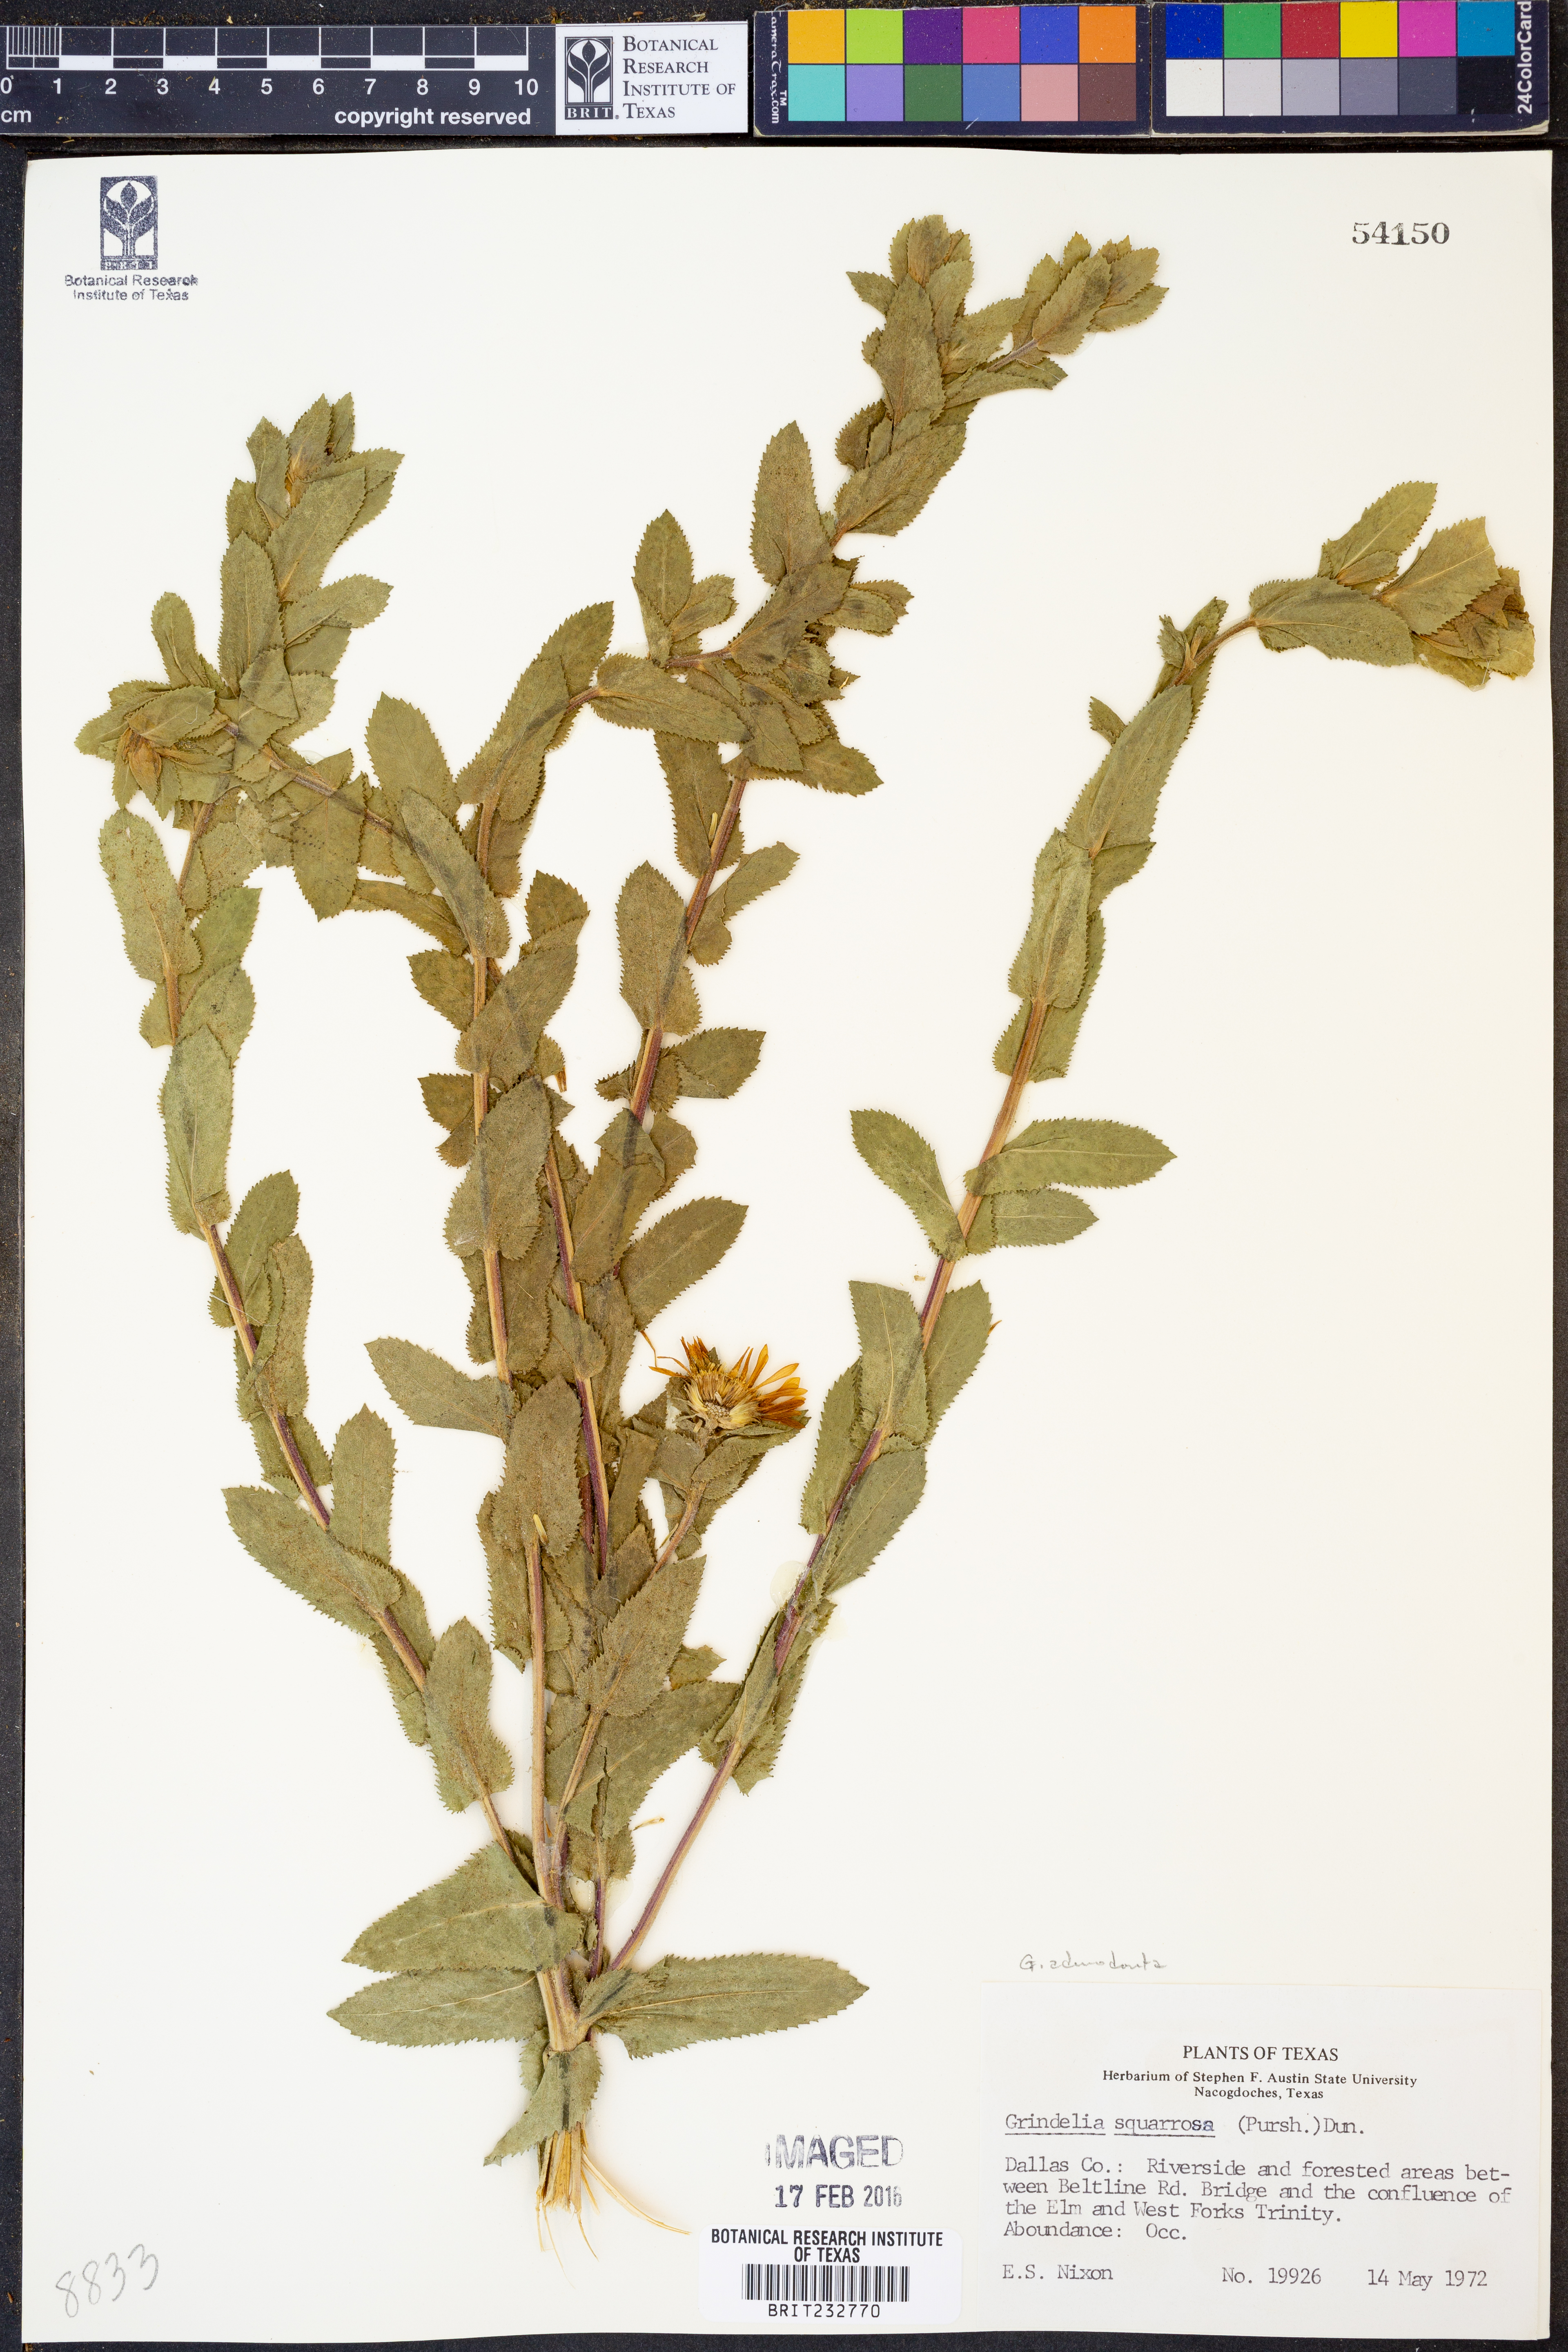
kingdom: Plantae
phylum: Tracheophyta
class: Magnoliopsida
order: Asterales
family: Asteraceae
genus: Grindelia
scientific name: Grindelia adenodonta
